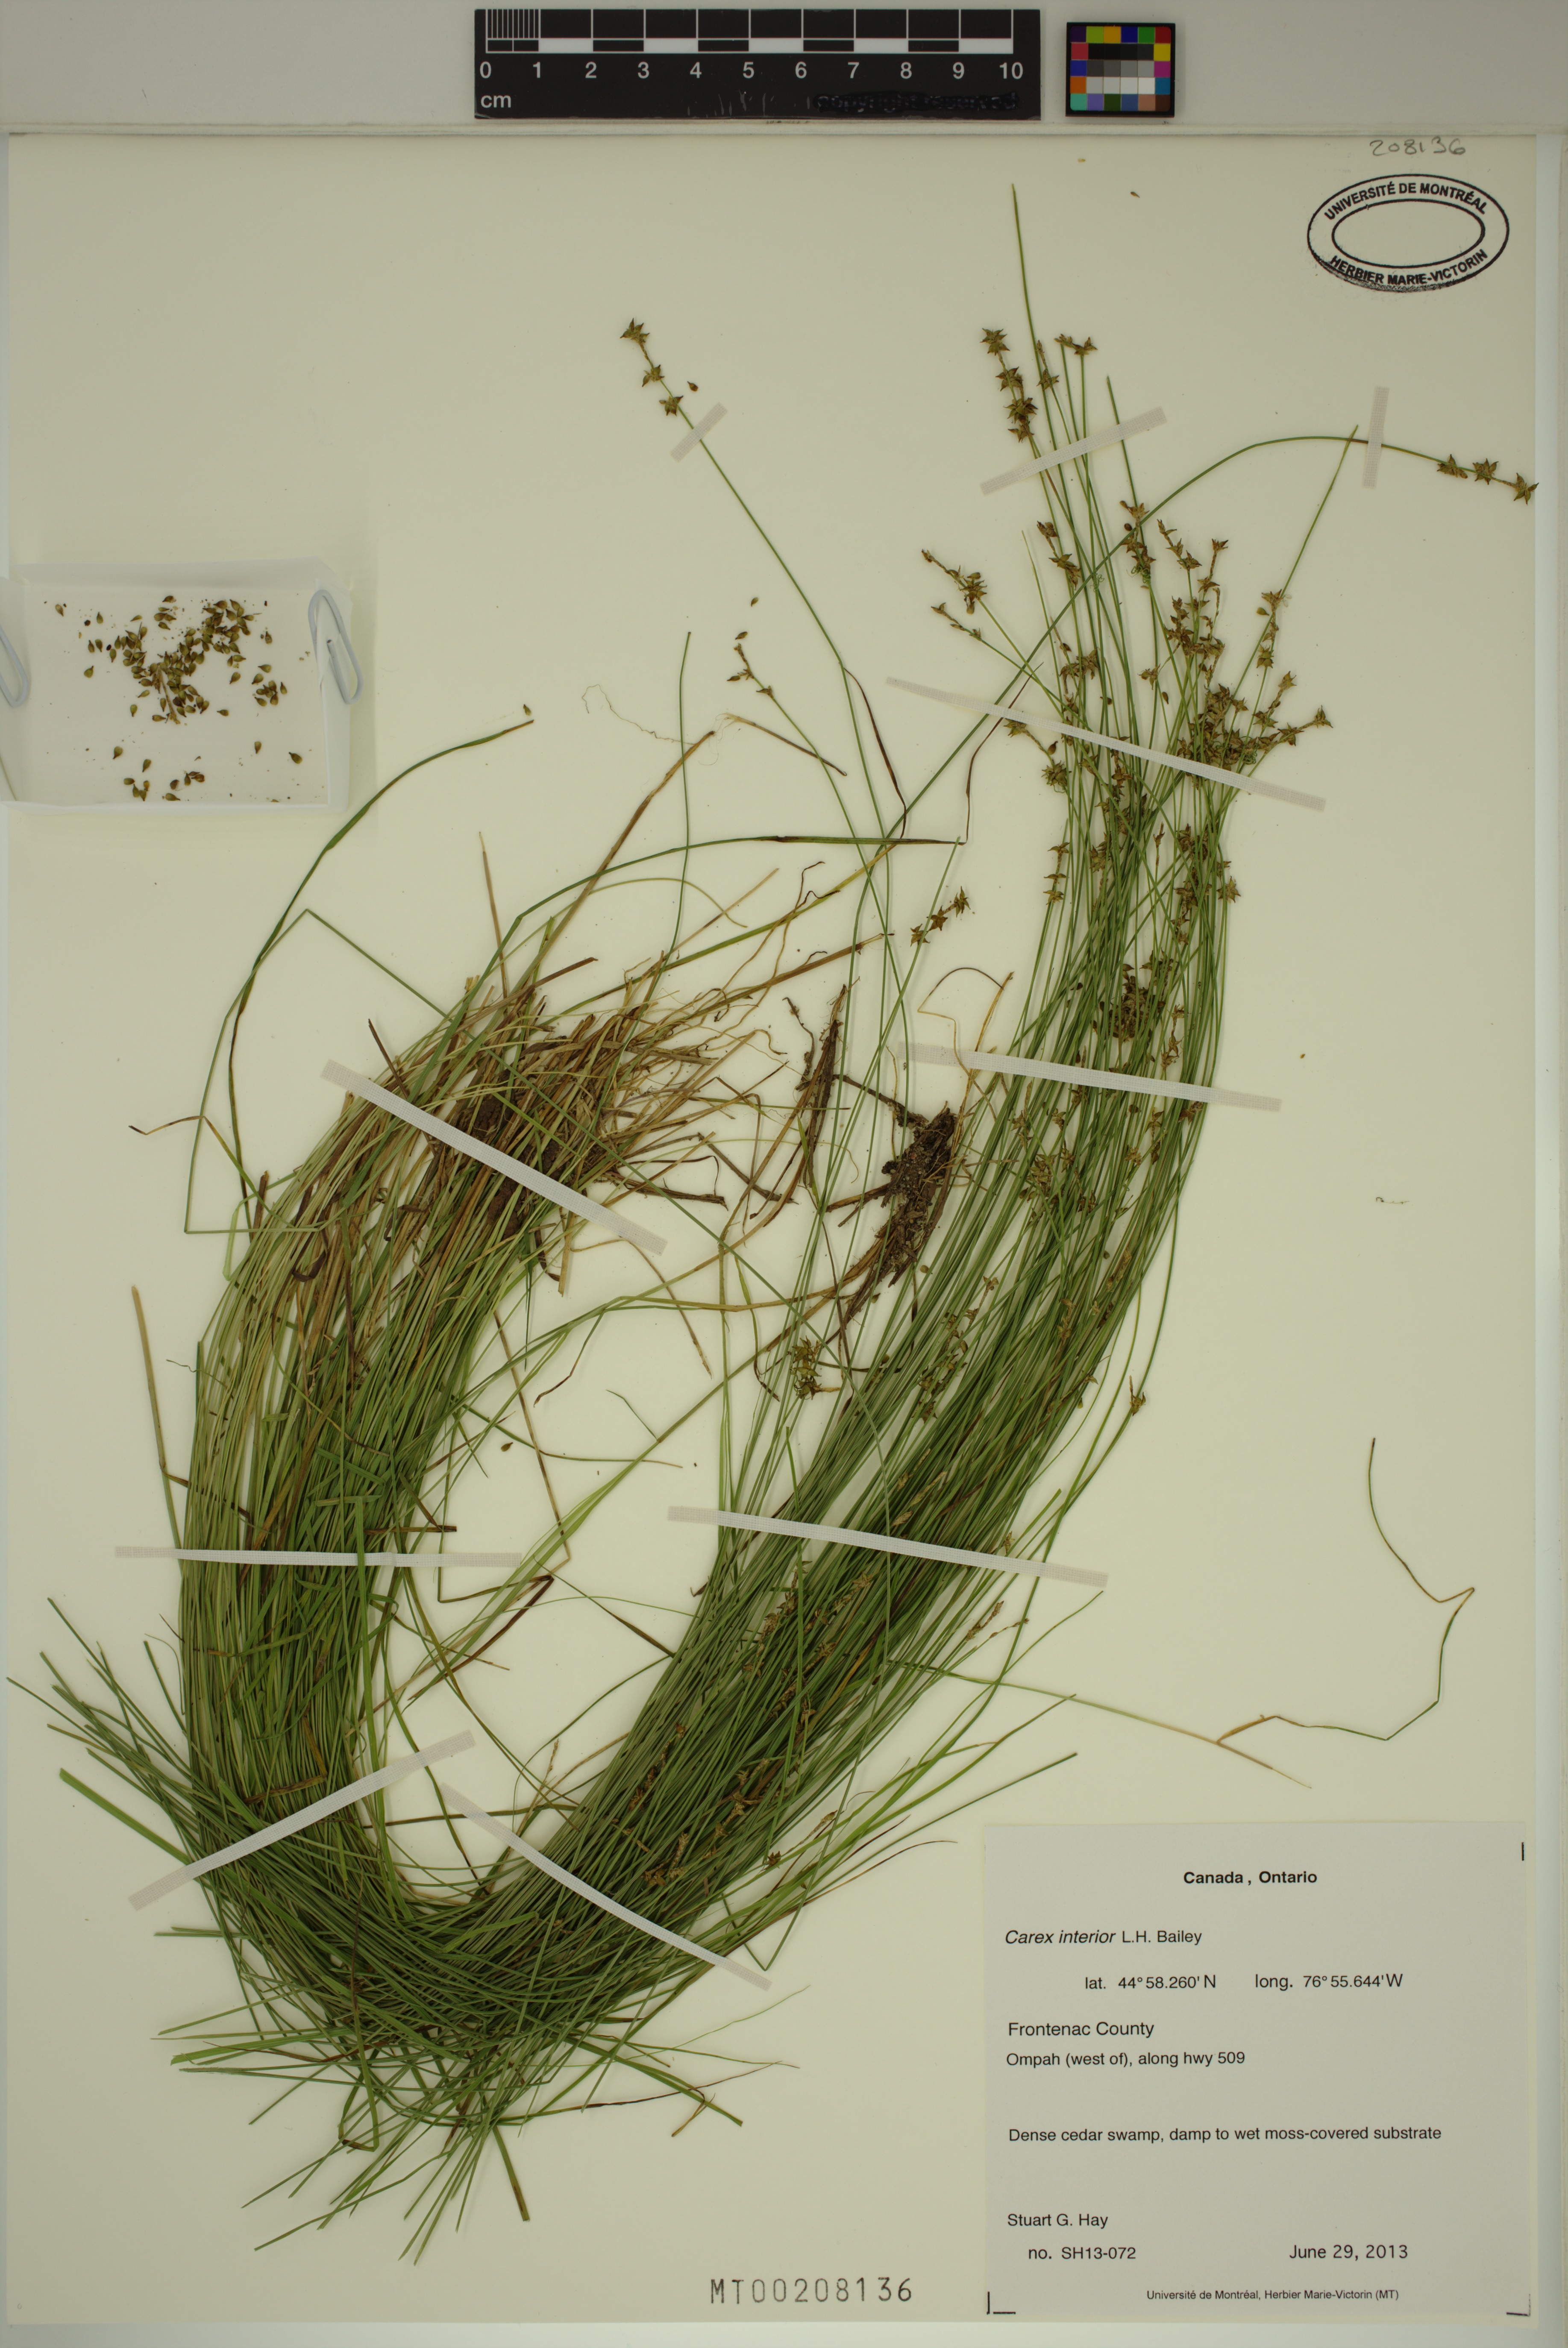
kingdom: Plantae
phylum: Tracheophyta
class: Liliopsida
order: Poales
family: Cyperaceae
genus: Carex
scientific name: Carex interior
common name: Inland sedge
